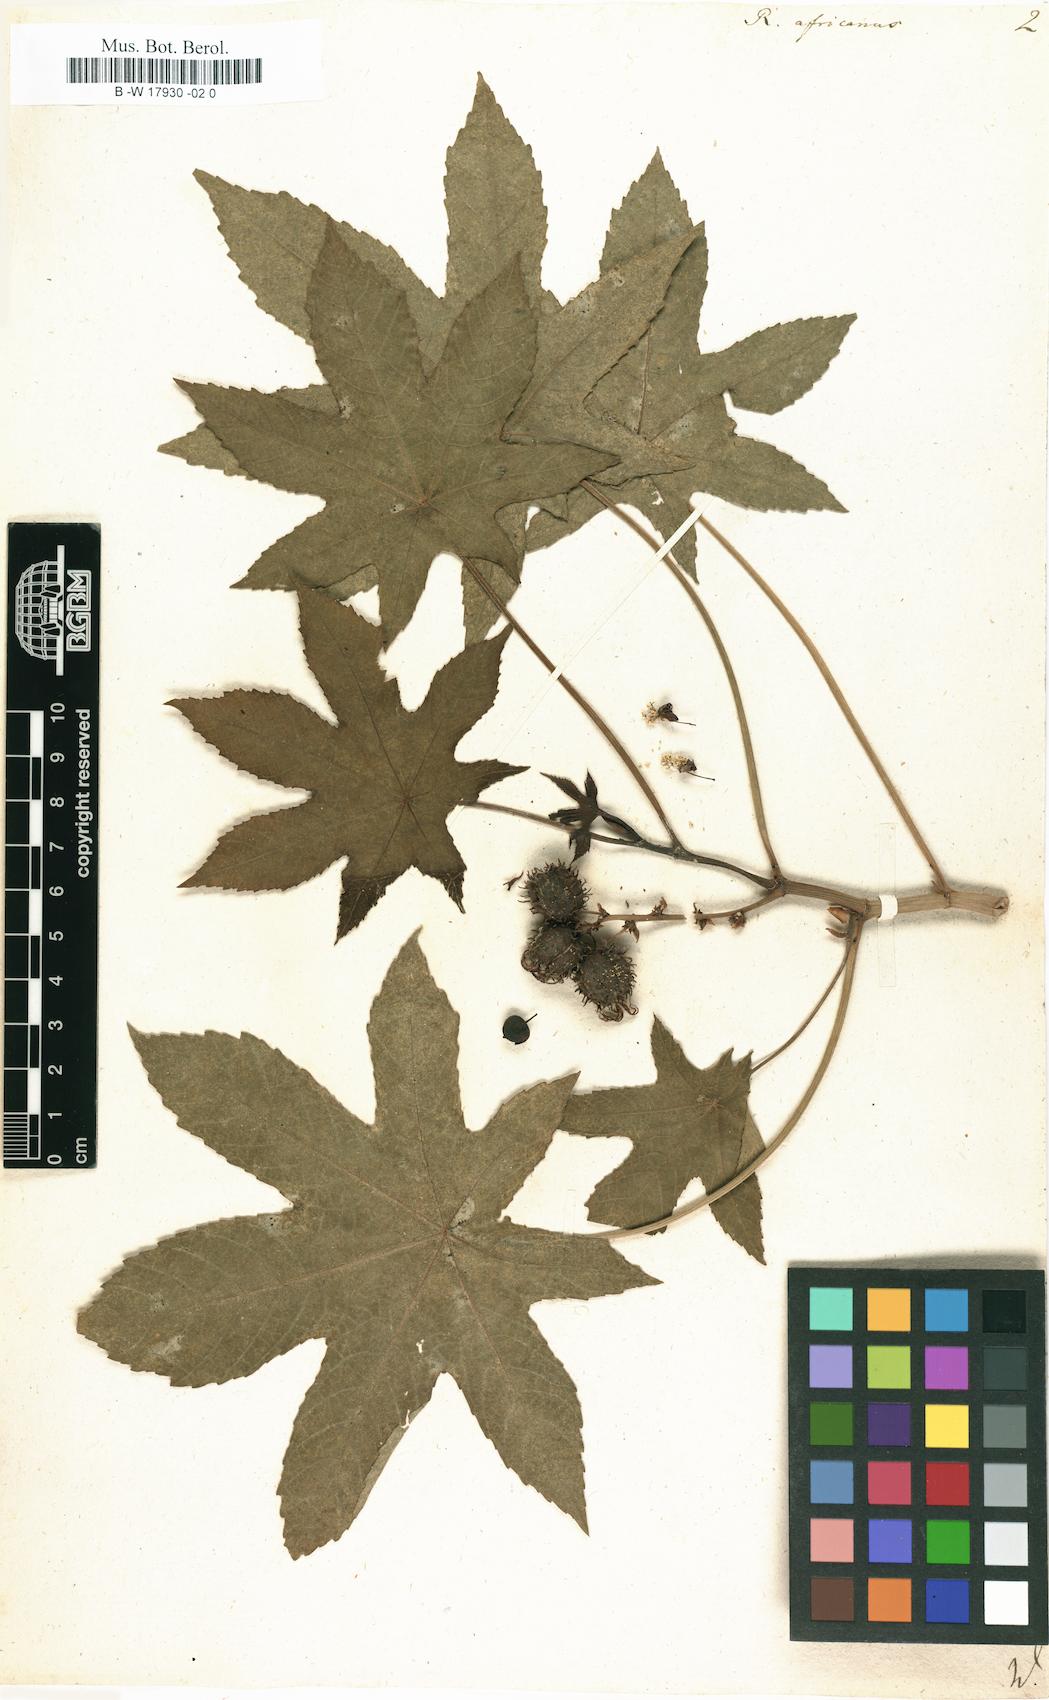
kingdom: Plantae
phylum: Tracheophyta
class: Magnoliopsida
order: Malpighiales
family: Euphorbiaceae
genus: Ricinus
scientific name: Ricinus communis
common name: Castor-oil-plant
